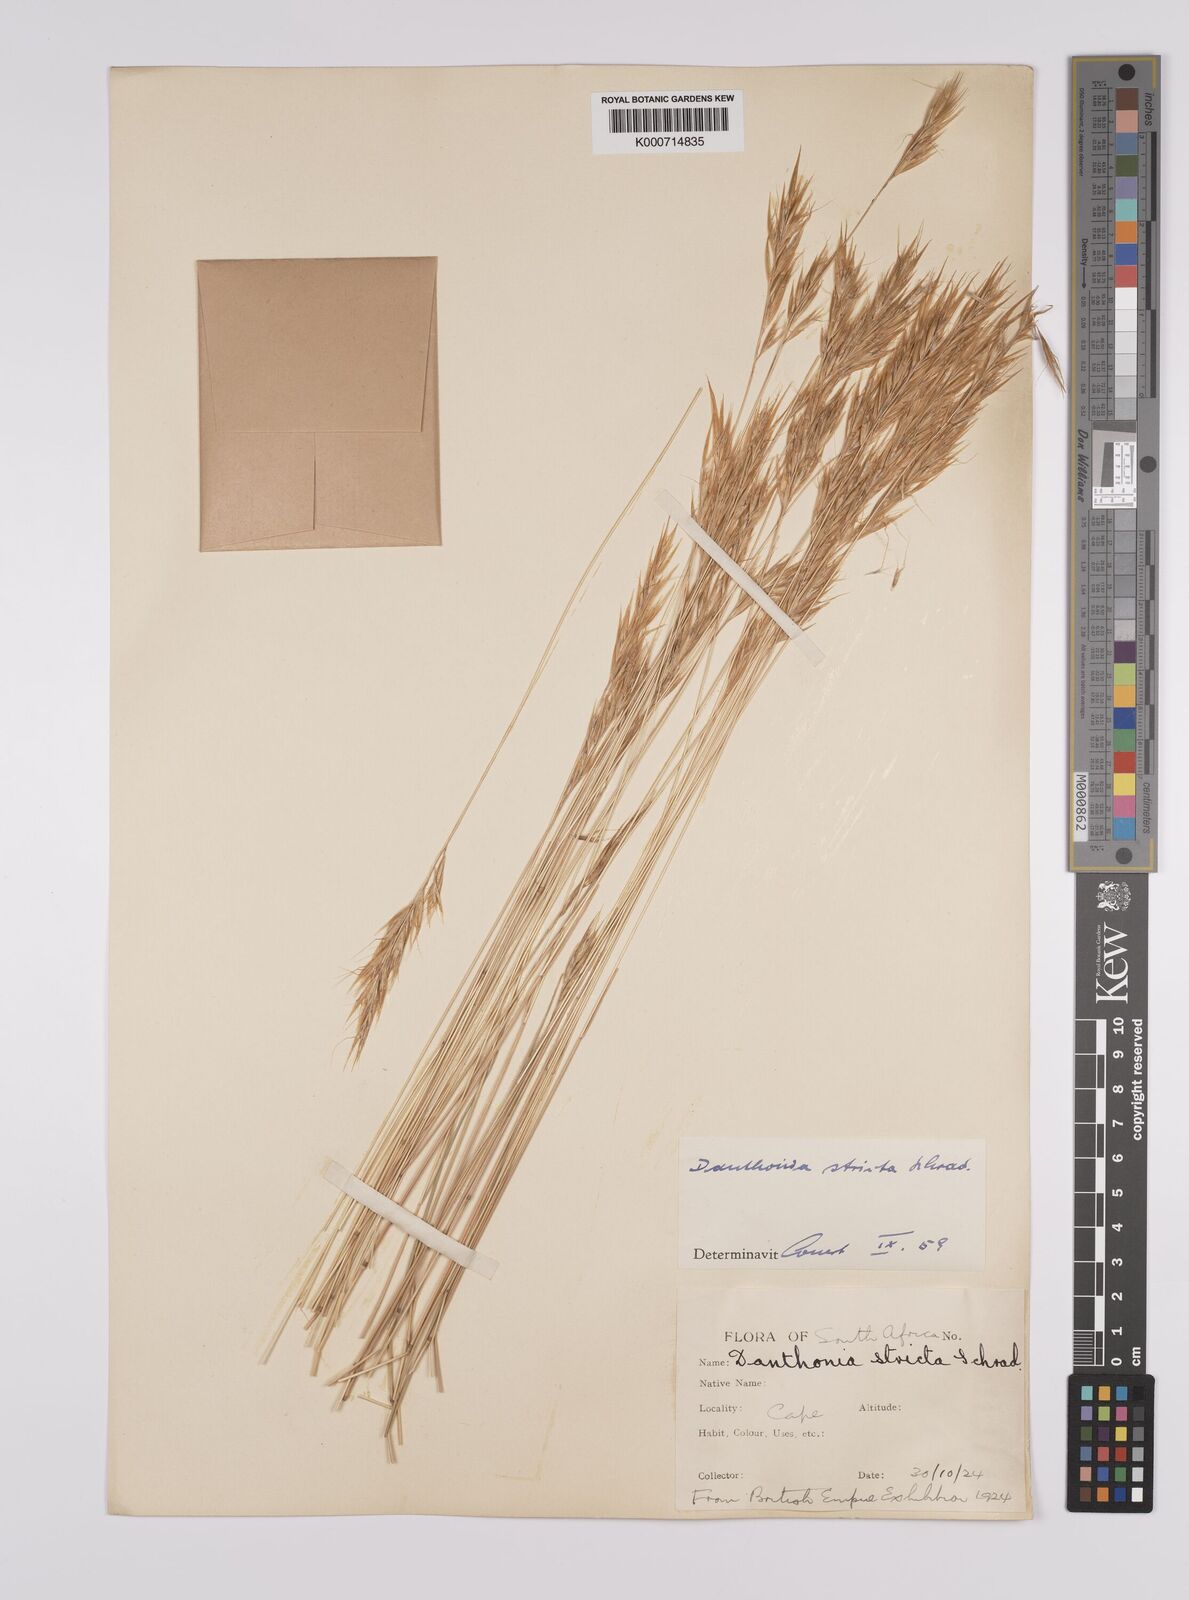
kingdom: Plantae
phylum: Tracheophyta
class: Liliopsida
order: Poales
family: Poaceae
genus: Rytidosperma
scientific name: Rytidosperma
